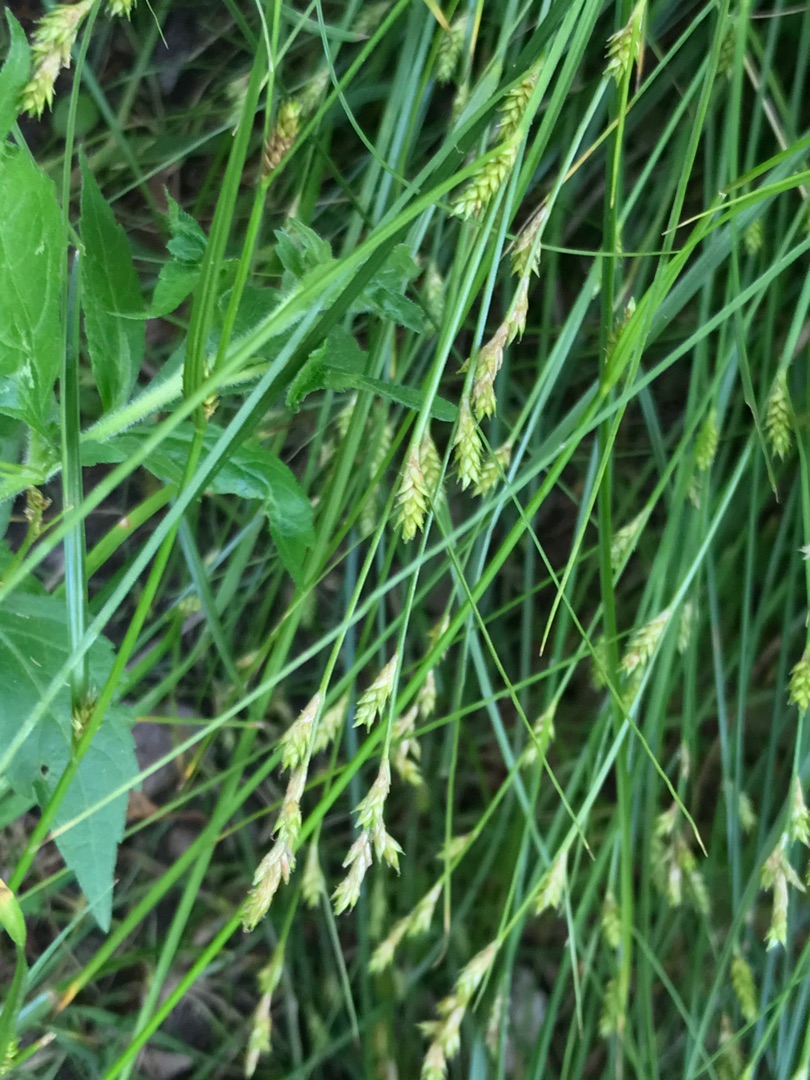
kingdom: Plantae
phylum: Tracheophyta
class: Liliopsida
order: Poales
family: Cyperaceae
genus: Carex
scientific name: Carex remota
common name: Akselblomstret star
